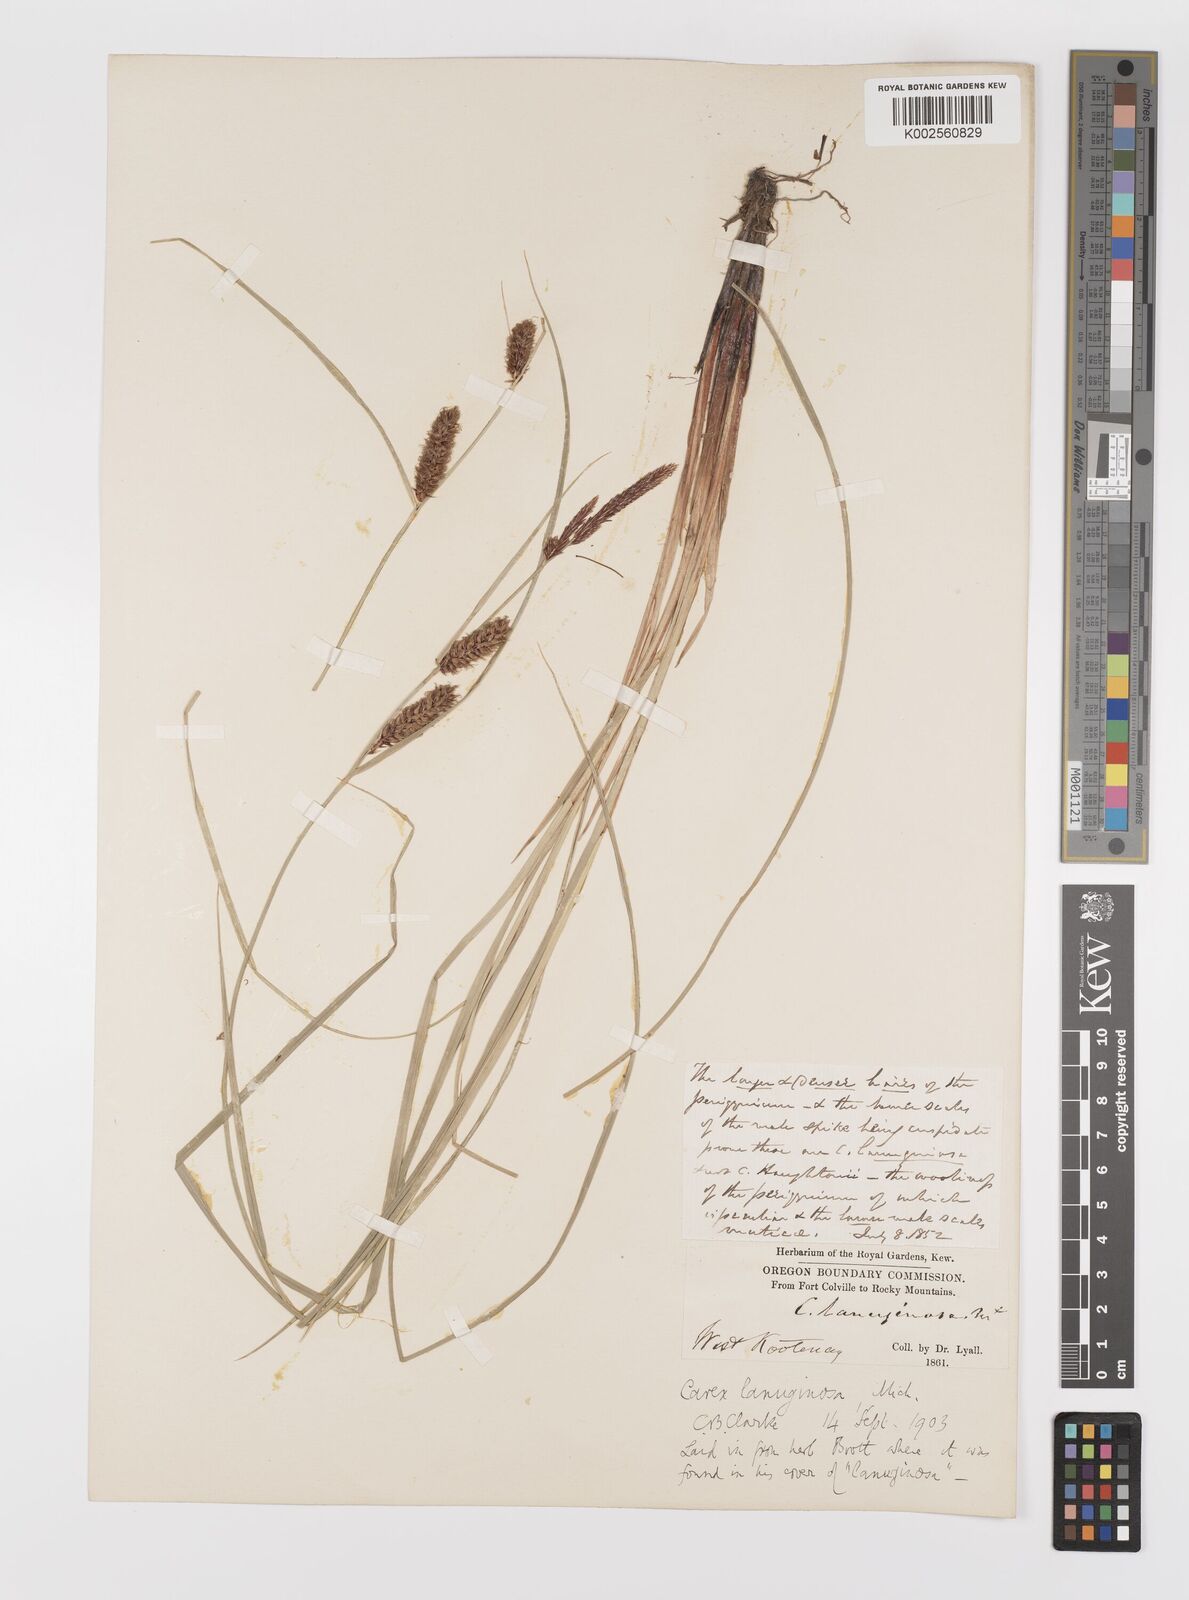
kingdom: Plantae
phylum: Tracheophyta
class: Liliopsida
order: Poales
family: Cyperaceae
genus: Carex
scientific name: Carex lasiocarpa
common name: Slender sedge
